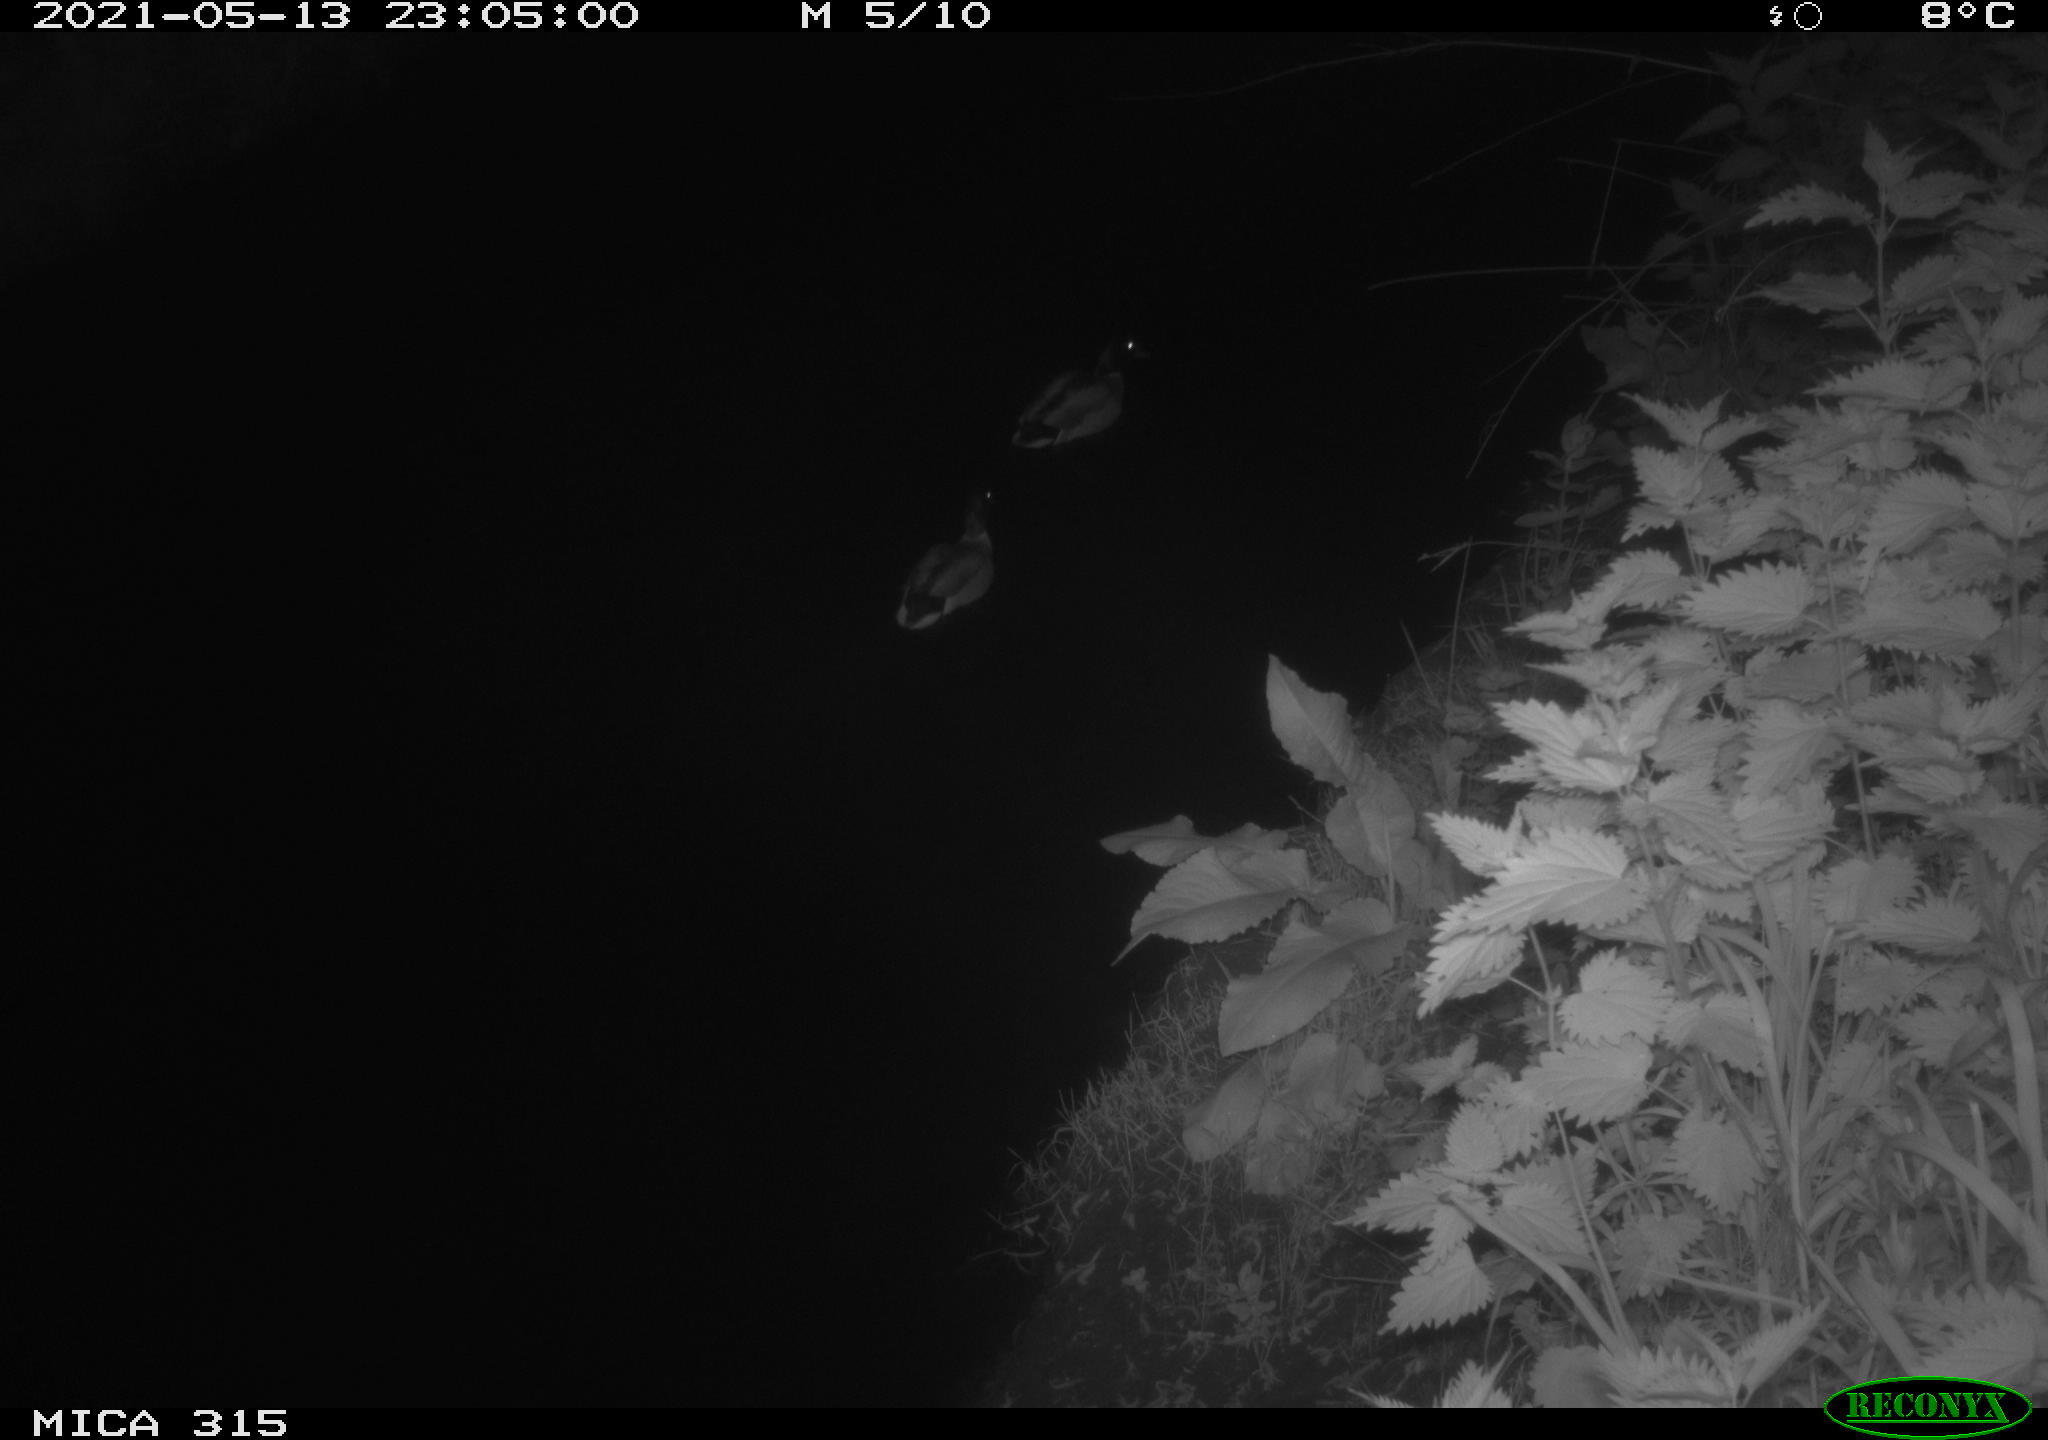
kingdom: Animalia
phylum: Chordata
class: Aves
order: Anseriformes
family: Anatidae
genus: Anas
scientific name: Anas
